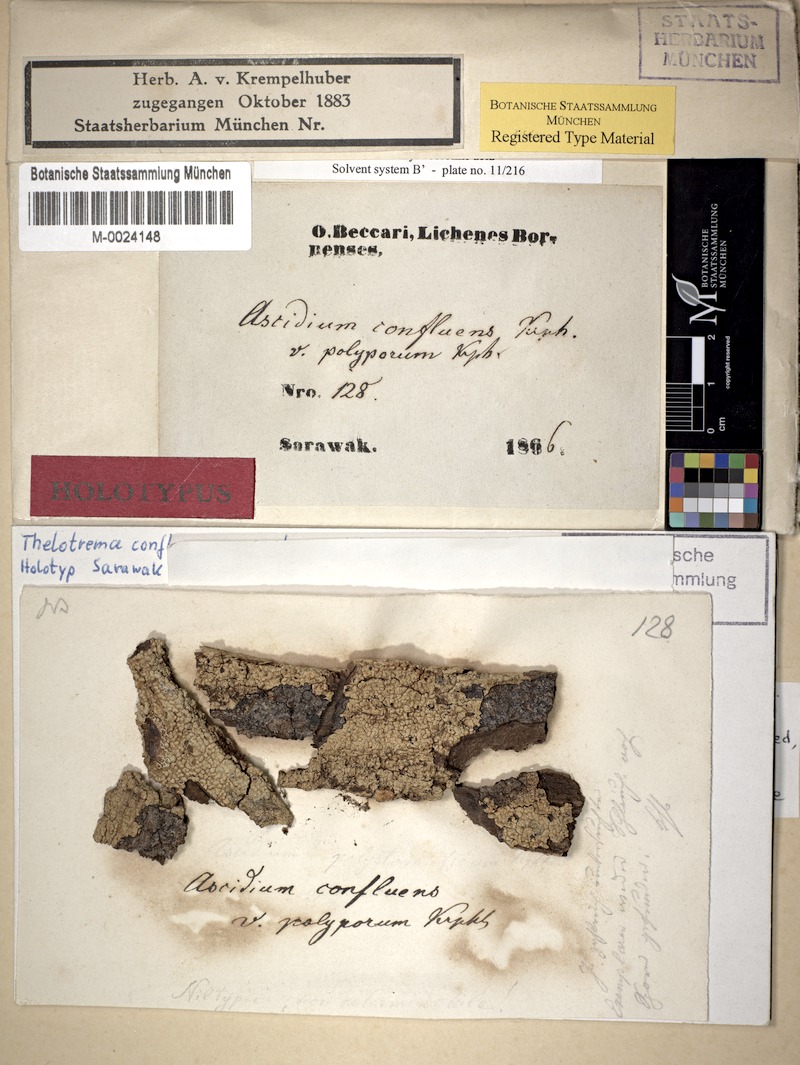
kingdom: Fungi
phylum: Ascomycota
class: Lecanoromycetes
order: Ostropales
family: Graphidaceae
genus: Ocellularia
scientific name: Ocellularia confluens
